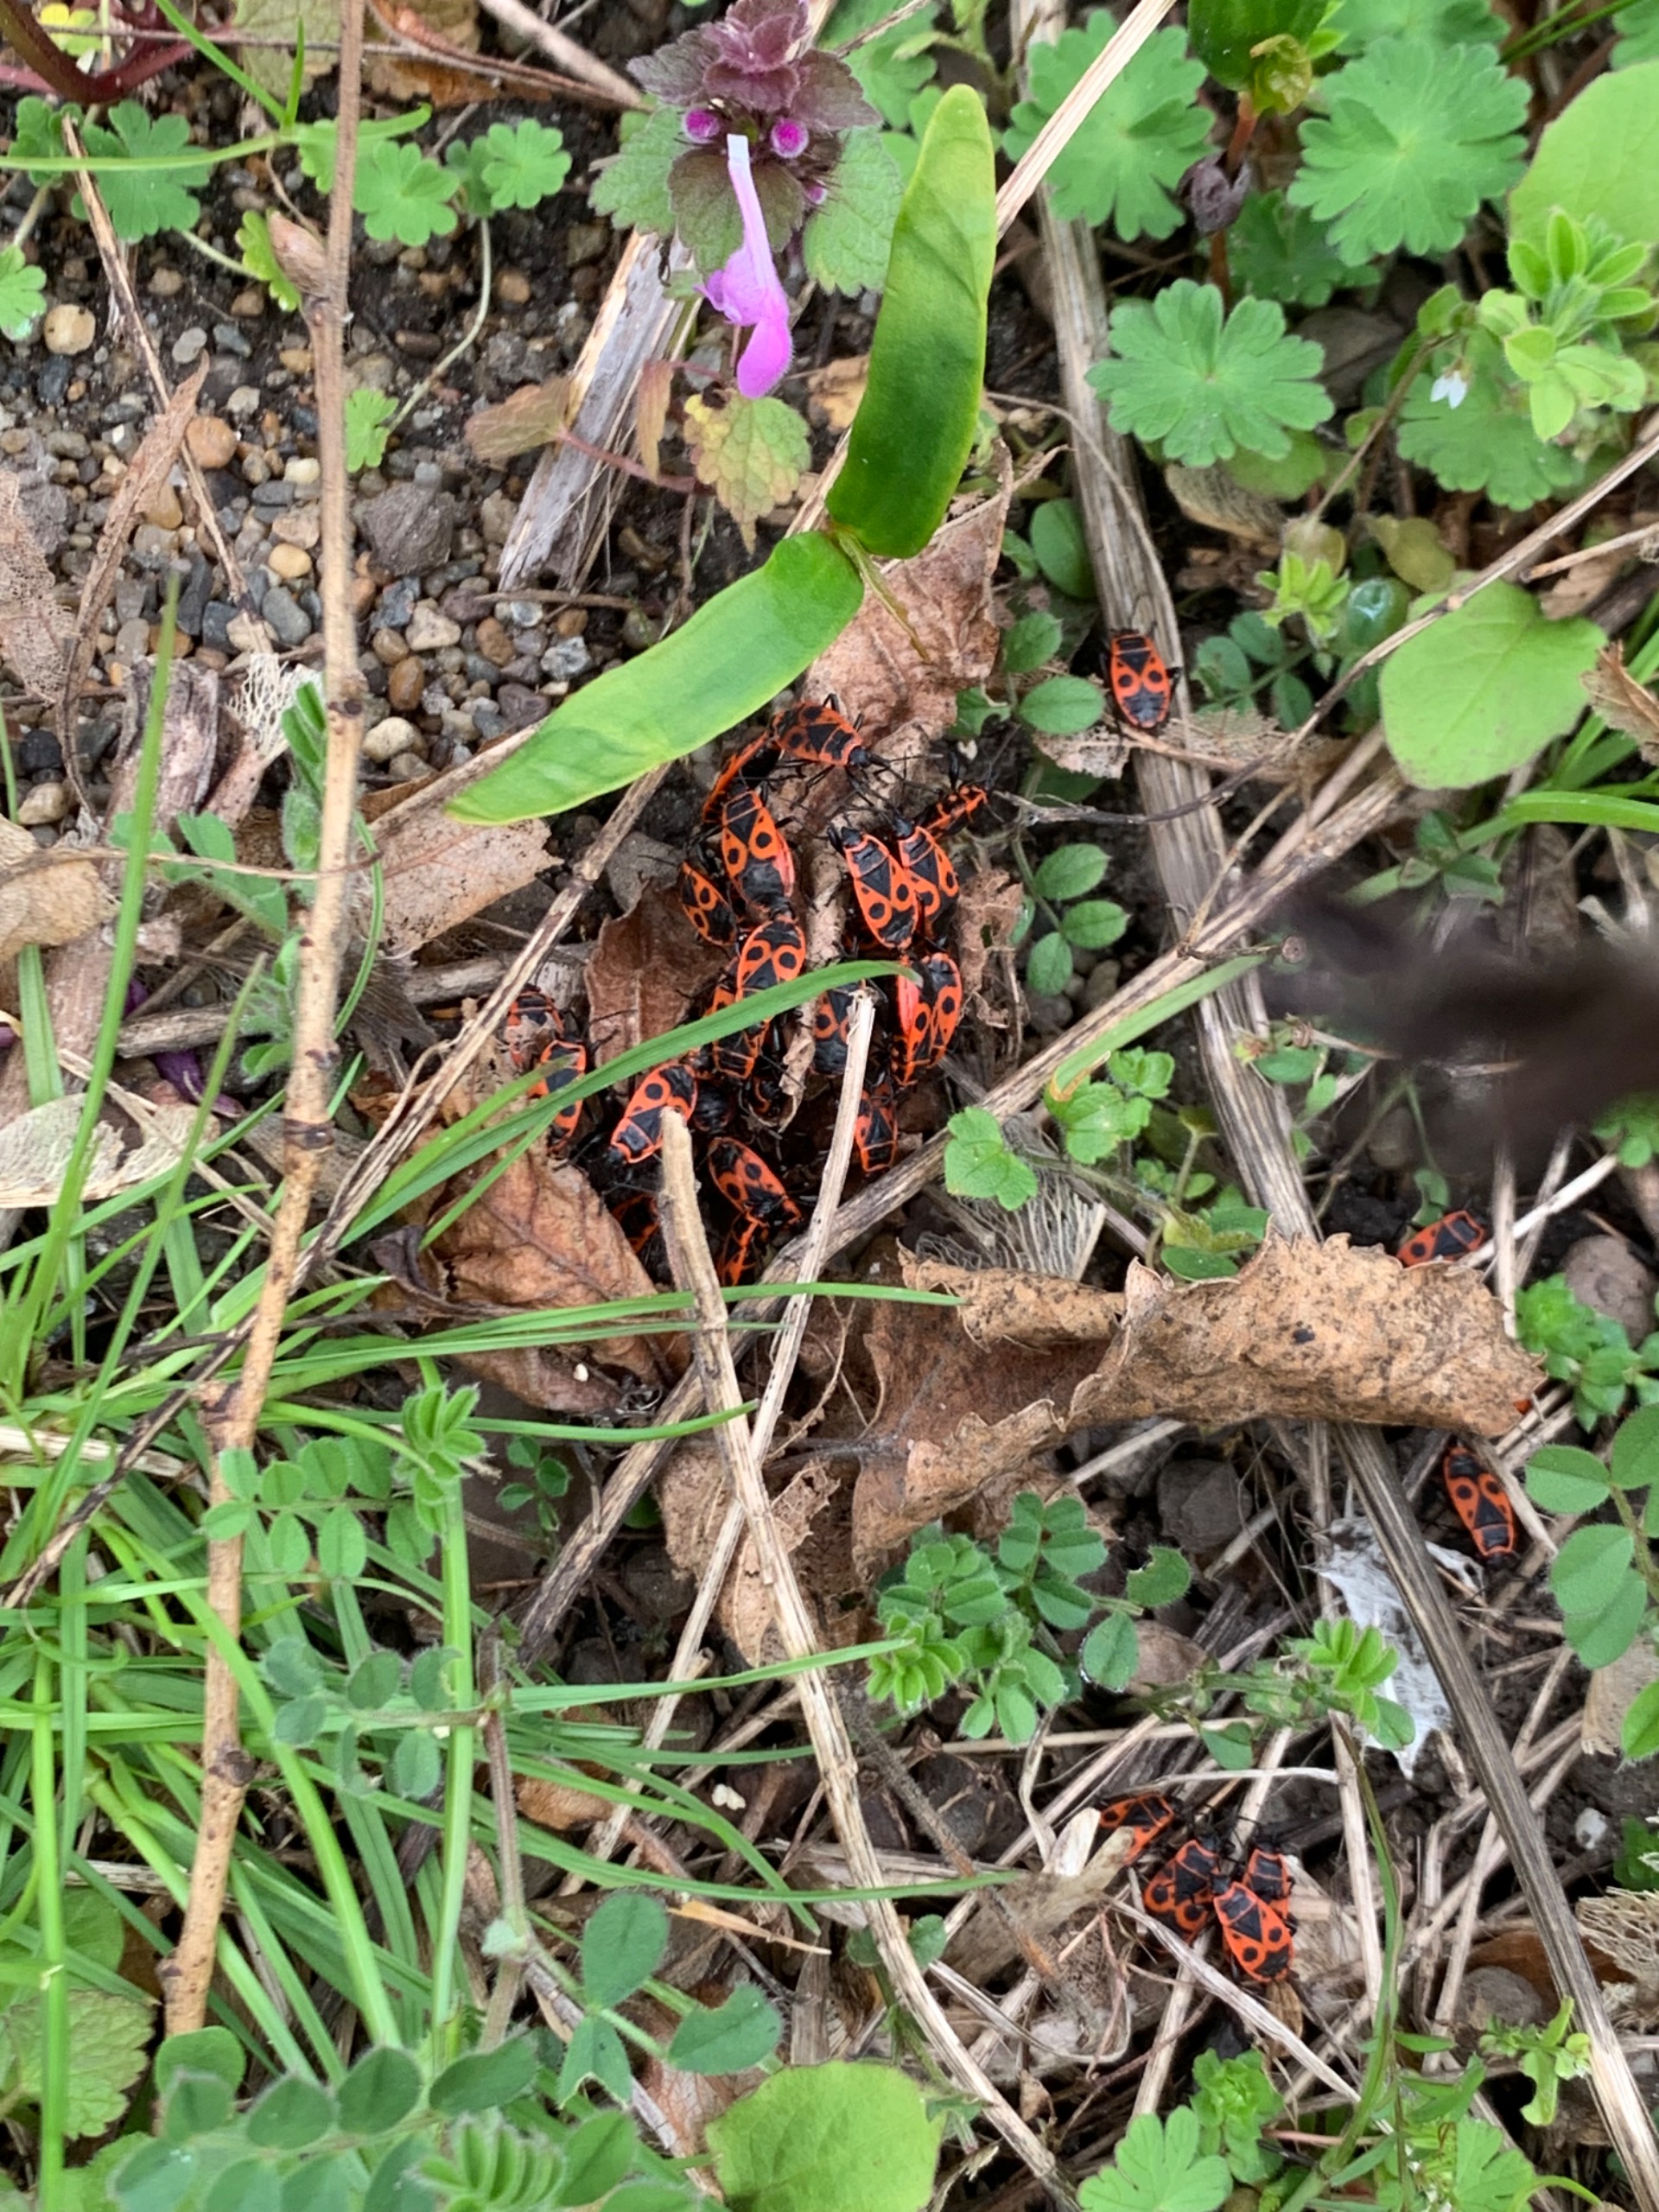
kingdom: Animalia
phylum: Arthropoda
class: Insecta
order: Hemiptera
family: Pyrrhocoridae
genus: Pyrrhocoris
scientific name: Pyrrhocoris apterus
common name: Ildtæge
